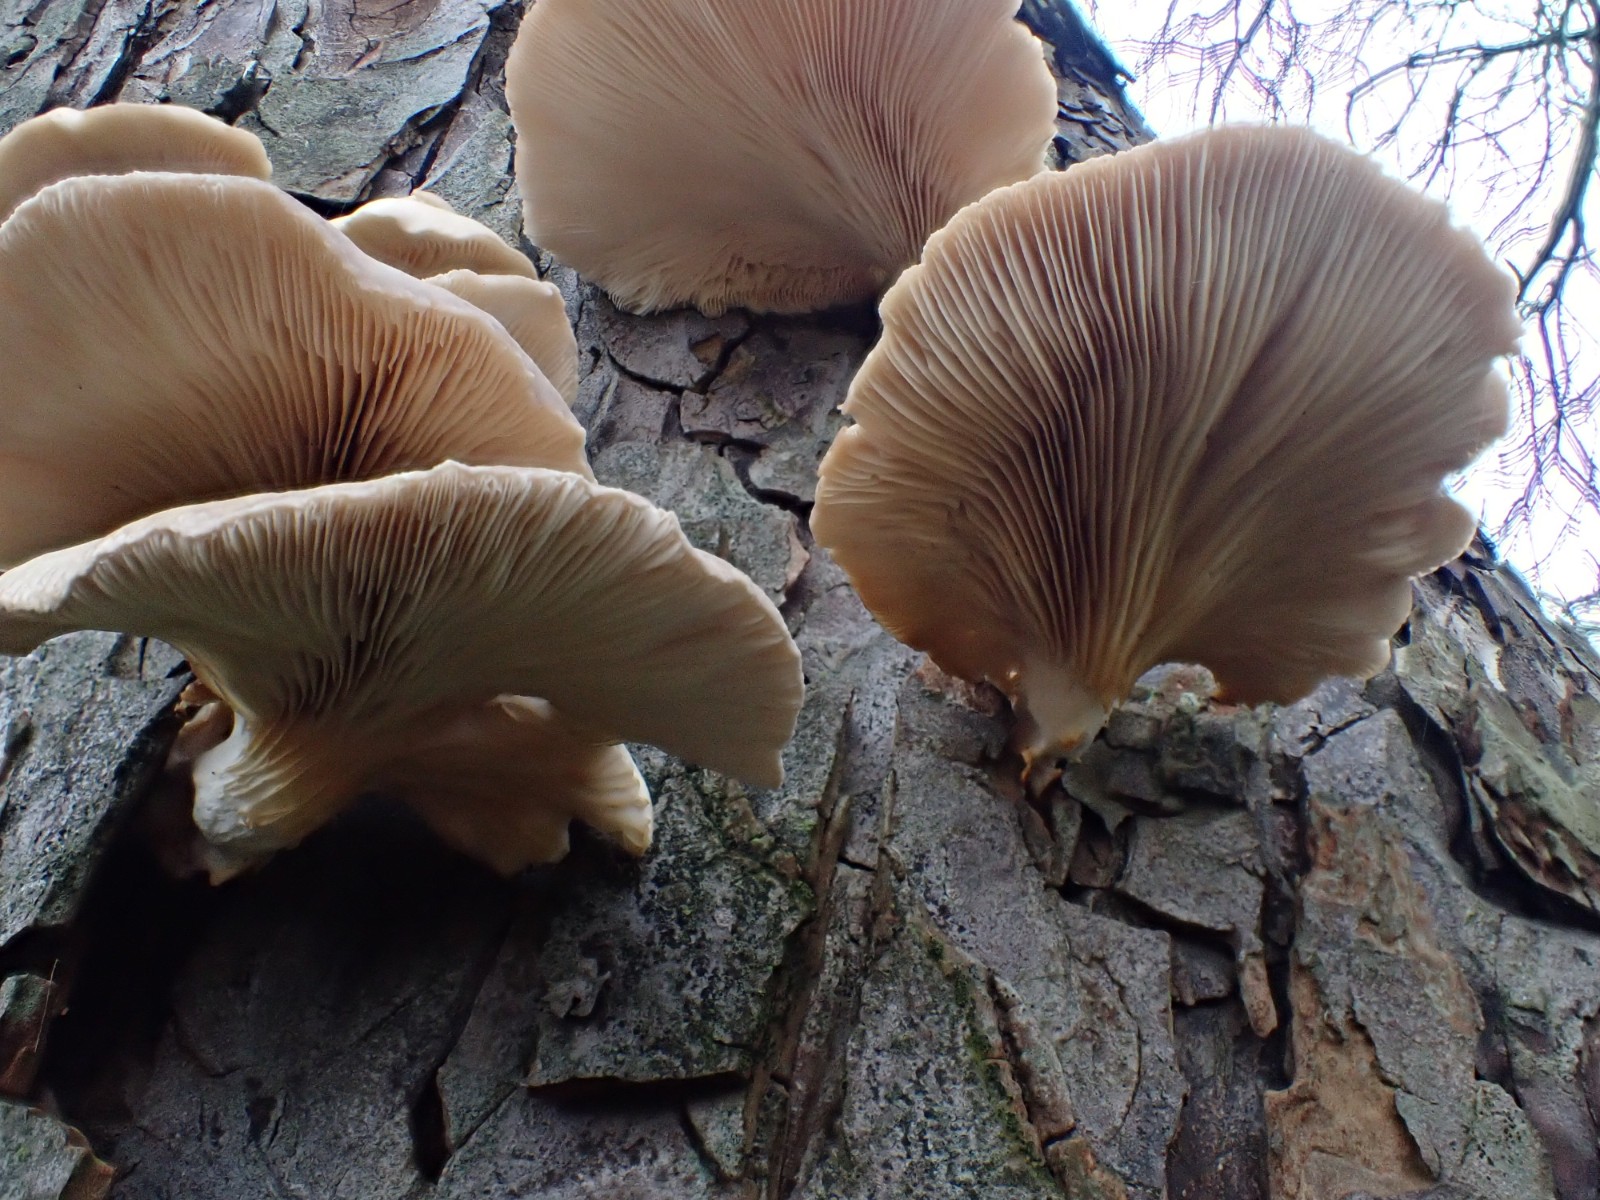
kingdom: Fungi
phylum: Basidiomycota
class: Agaricomycetes
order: Agaricales
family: Pleurotaceae
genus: Pleurotus
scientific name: Pleurotus ostreatus
